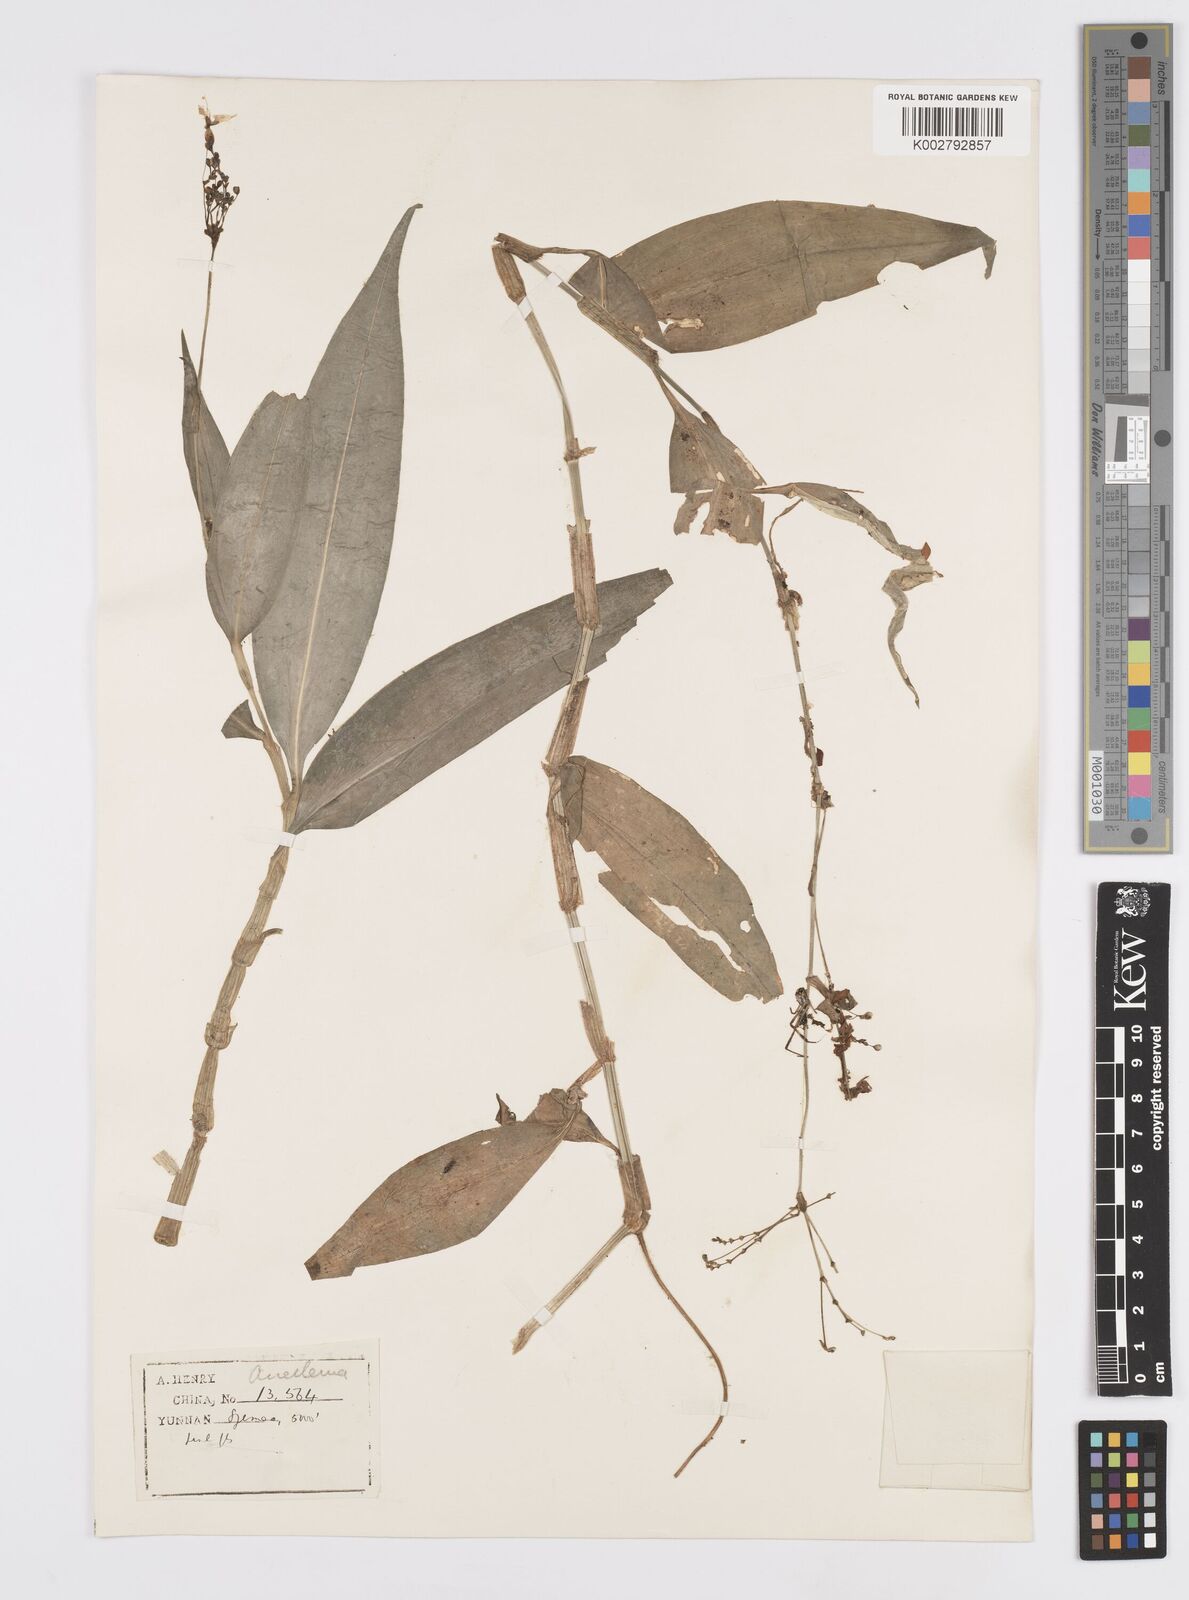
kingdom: Plantae
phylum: Tracheophyta
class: Liliopsida
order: Commelinales
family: Commelinaceae
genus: Murdannia
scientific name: Murdannia
